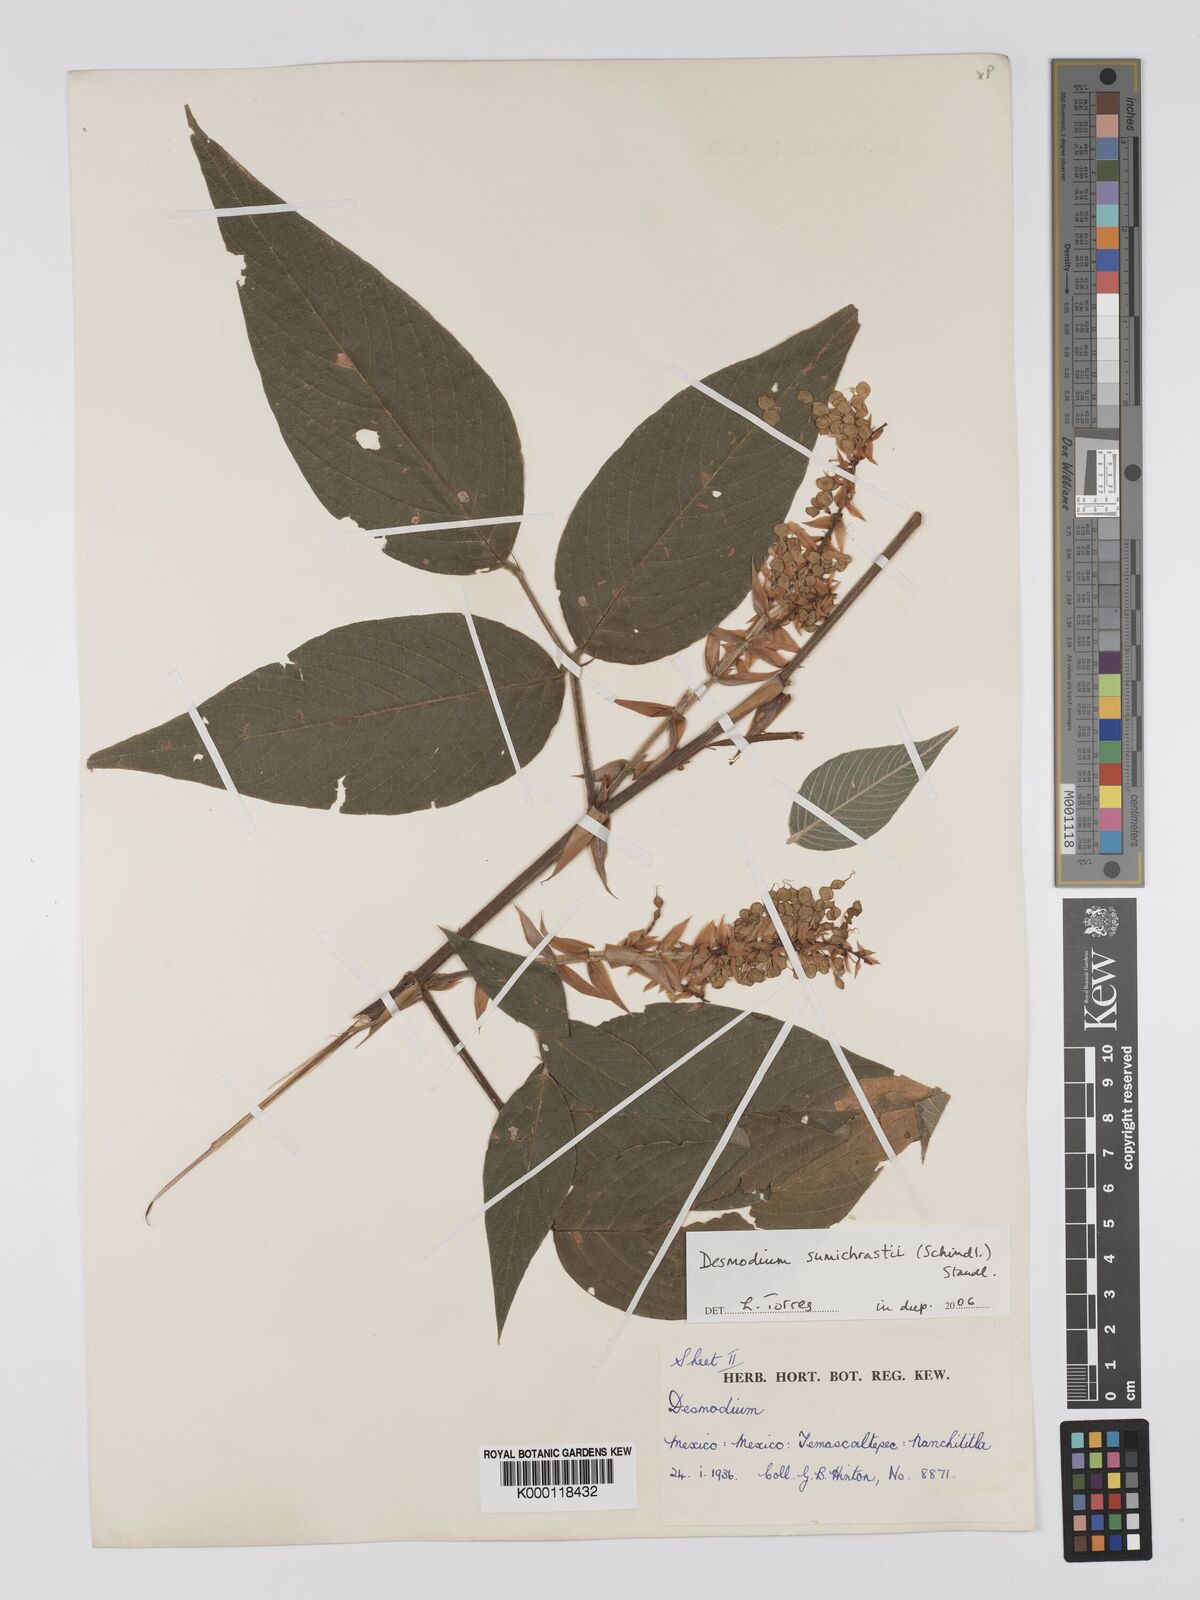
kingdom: Plantae
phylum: Tracheophyta
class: Magnoliopsida
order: Fabales
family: Fabaceae
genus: Desmodium
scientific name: Desmodium
